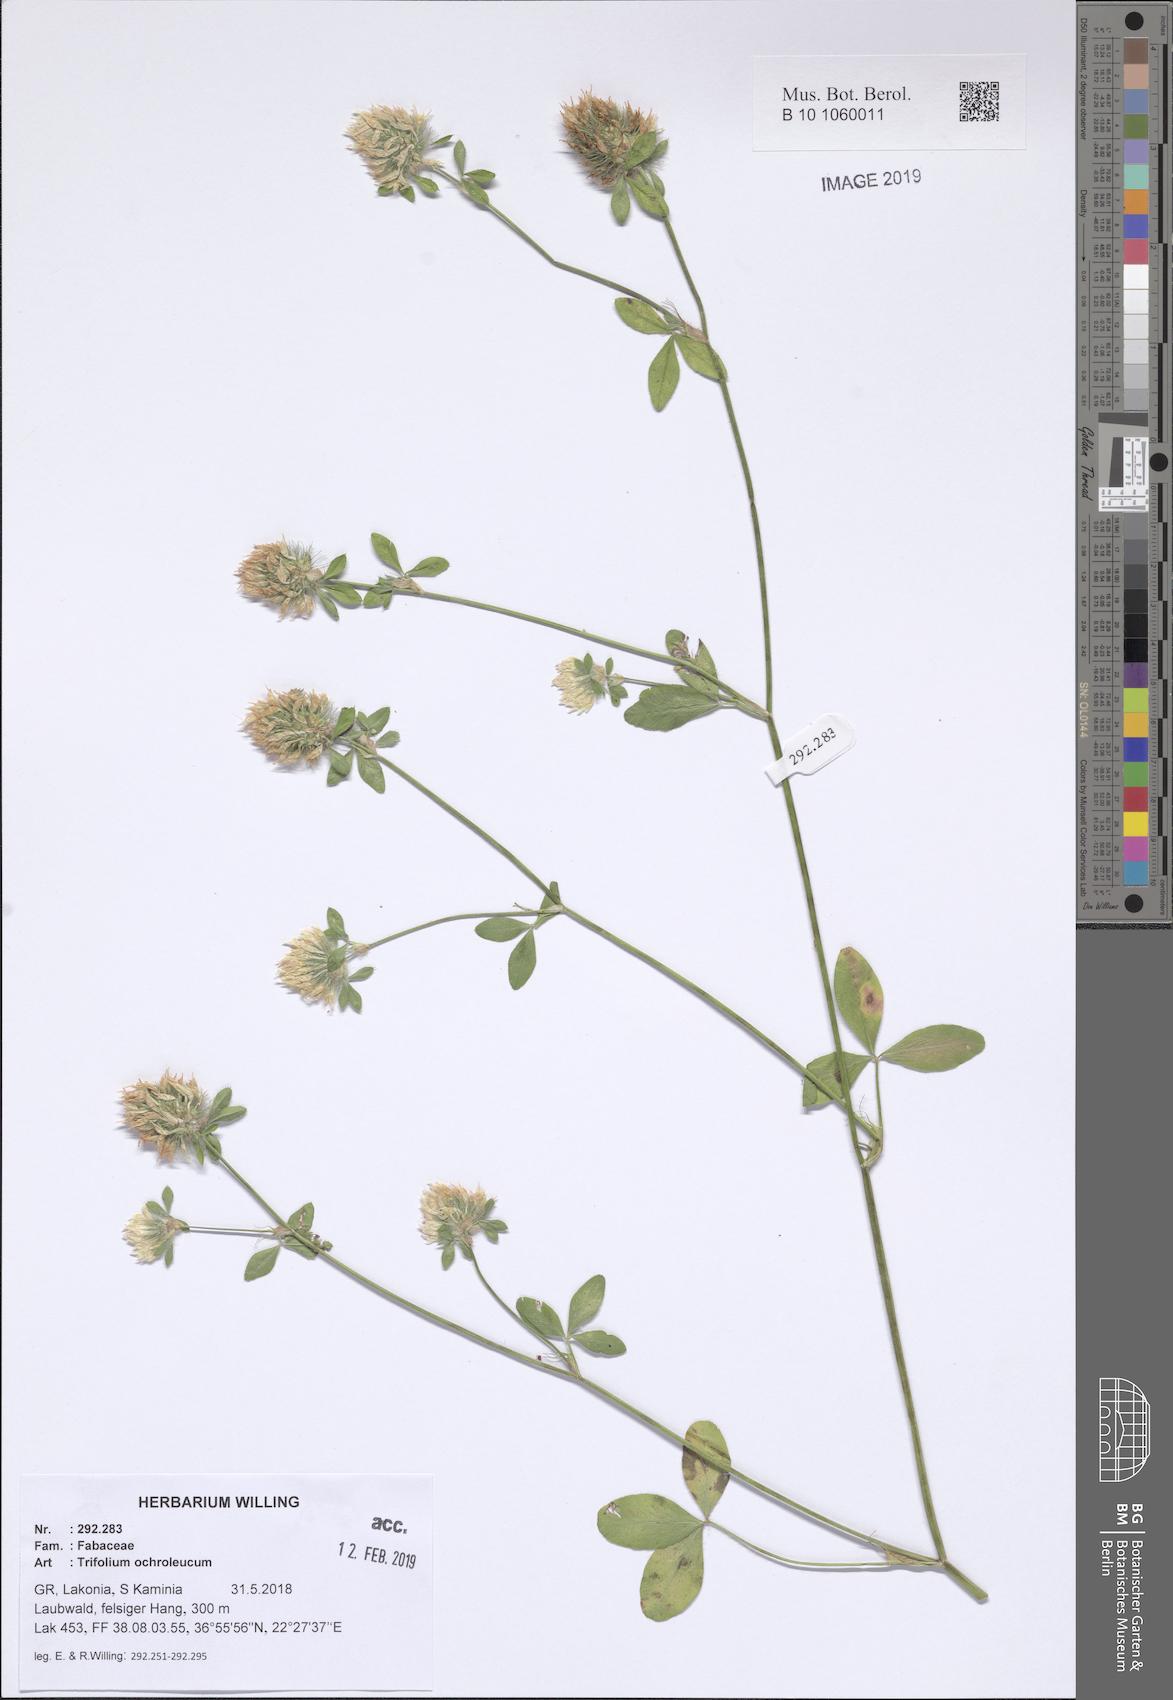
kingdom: Plantae
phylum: Tracheophyta
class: Magnoliopsida
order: Fabales
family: Fabaceae
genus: Trifolium
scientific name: Trifolium ochroleucon
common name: Sulphur clover
